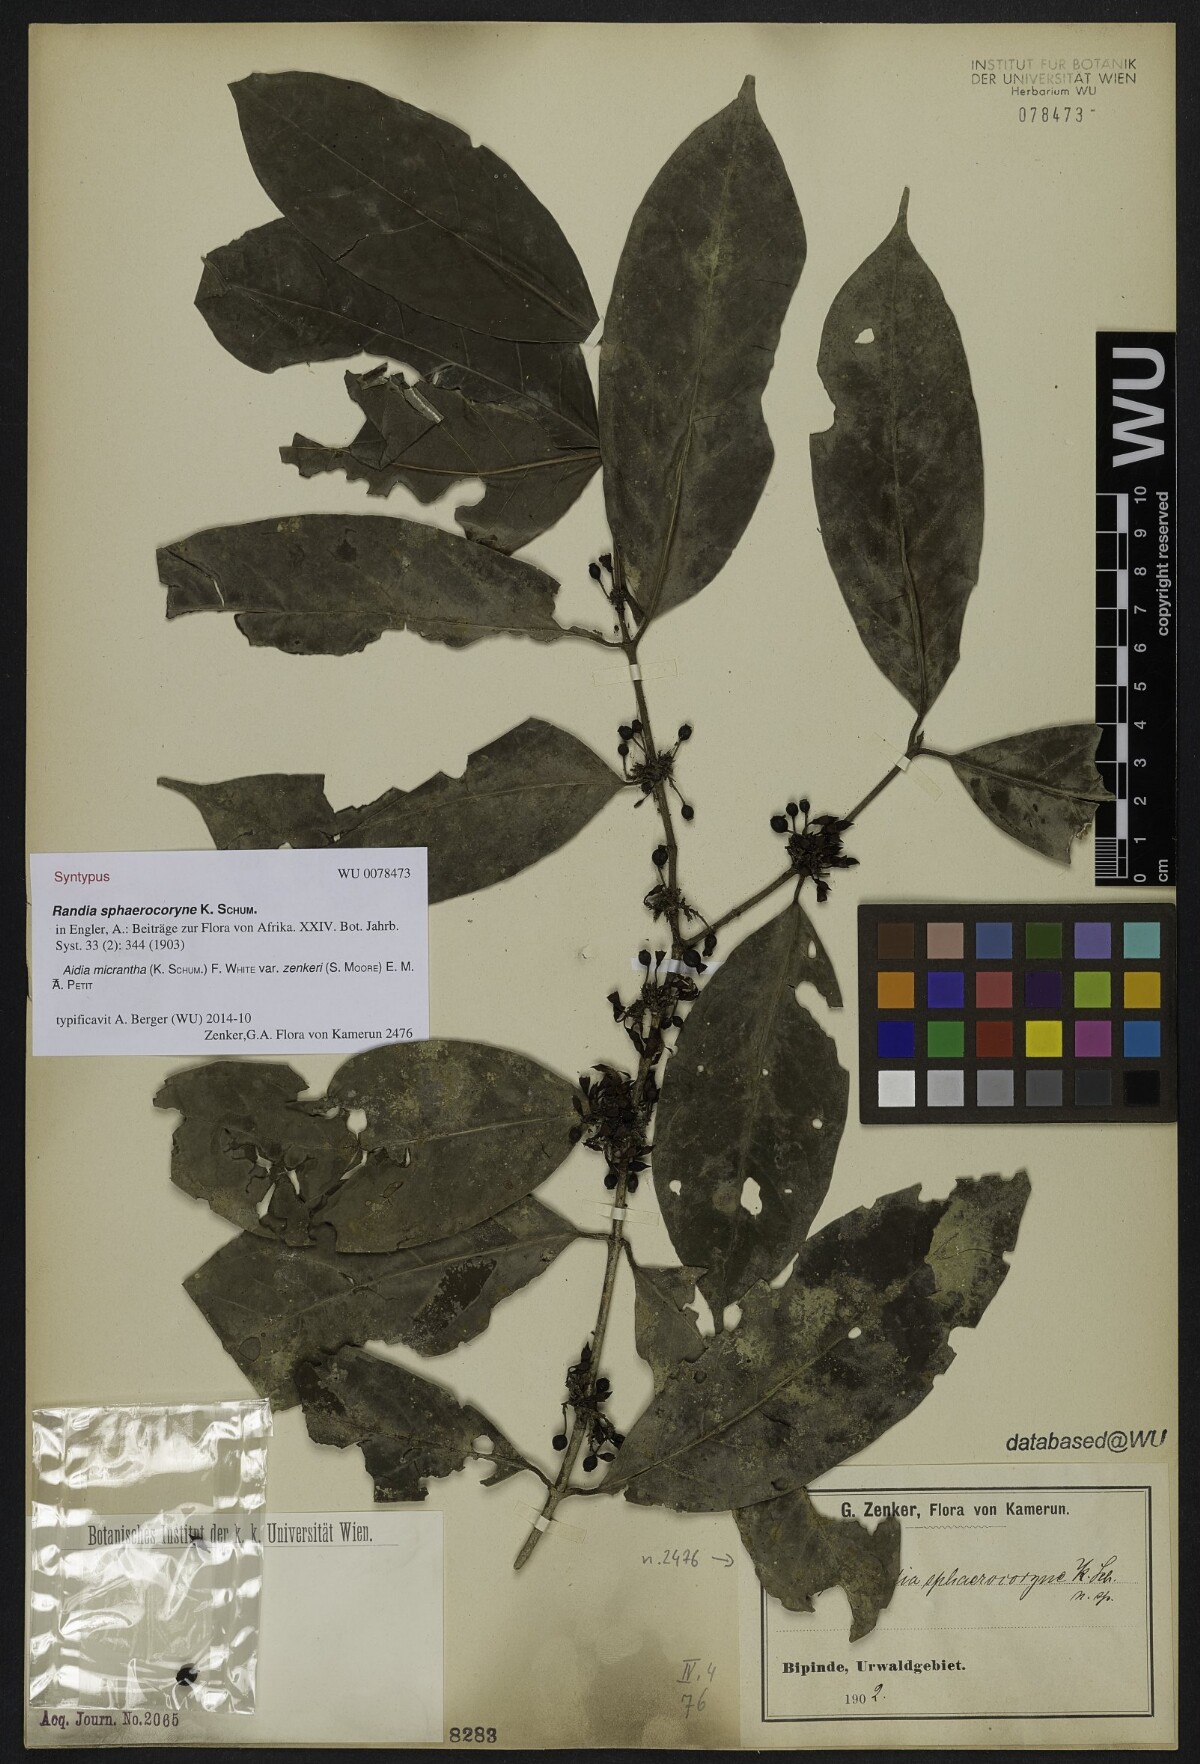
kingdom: Plantae
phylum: Tracheophyta
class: Magnoliopsida
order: Gentianales
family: Rubiaceae
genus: Aidia
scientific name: Aidia micrantha
